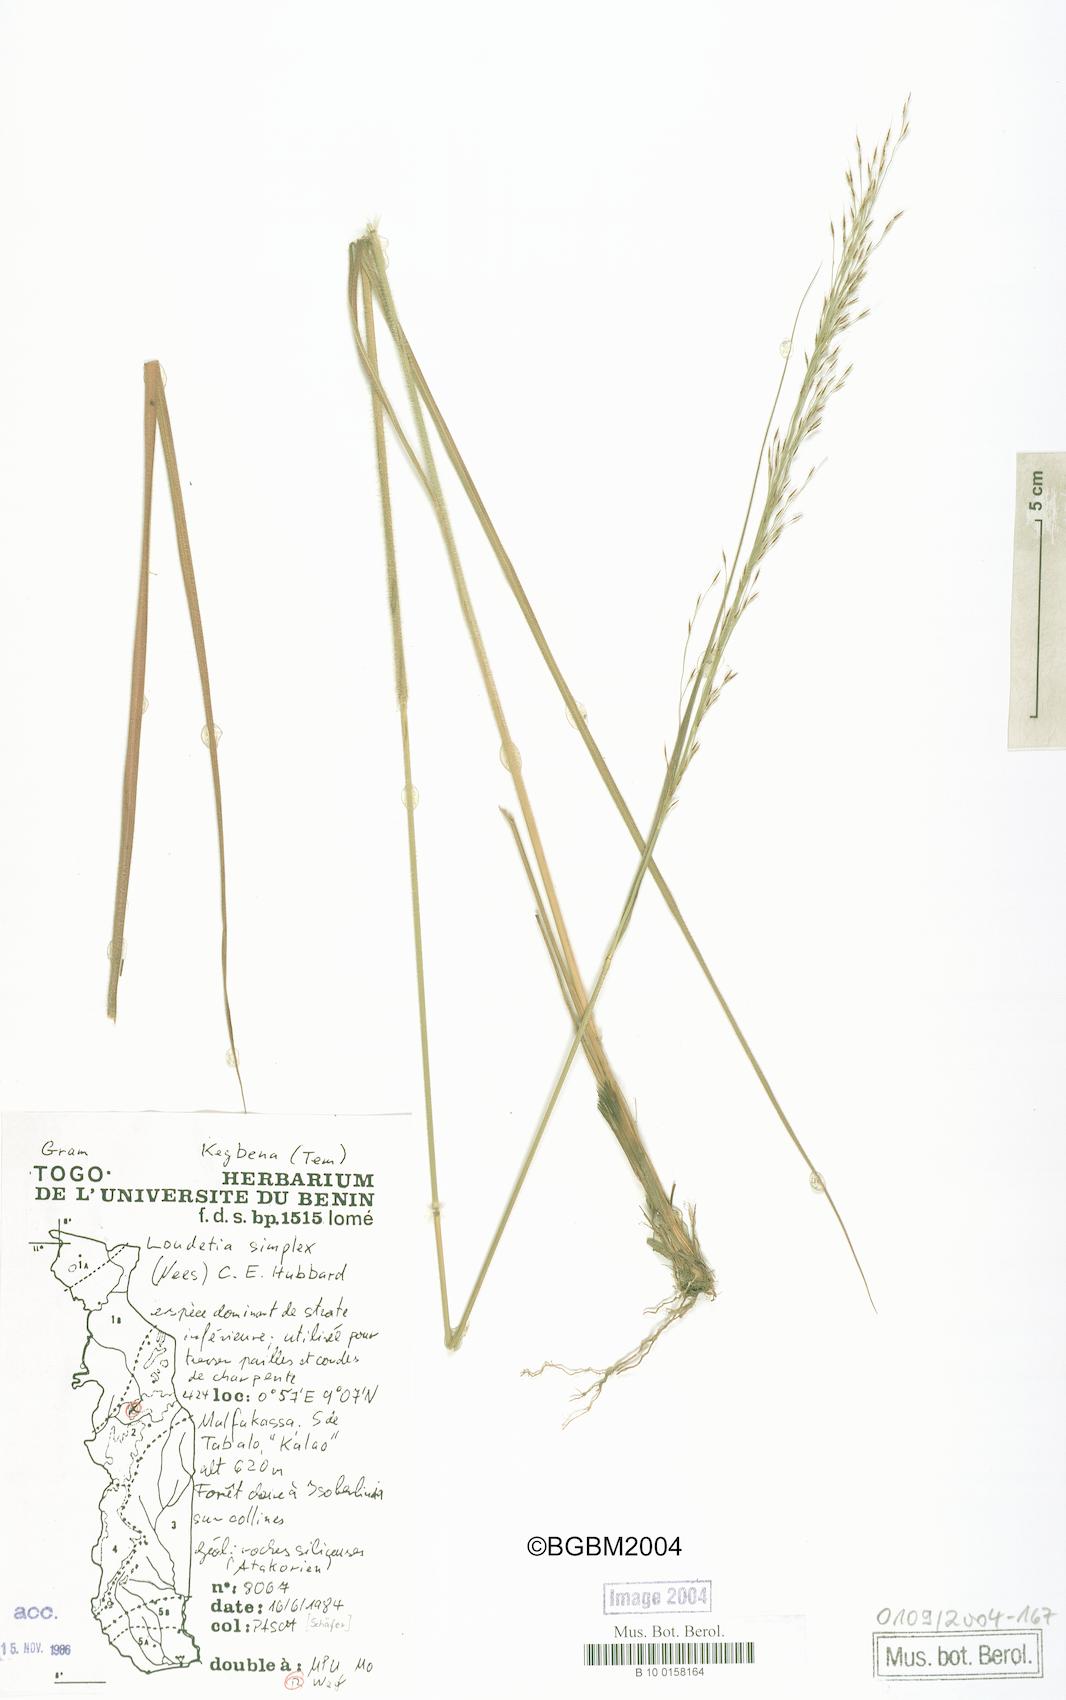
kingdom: Plantae
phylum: Tracheophyta
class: Liliopsida
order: Poales
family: Poaceae
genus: Loudetia
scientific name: Loudetia simplex
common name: Common russet grass
